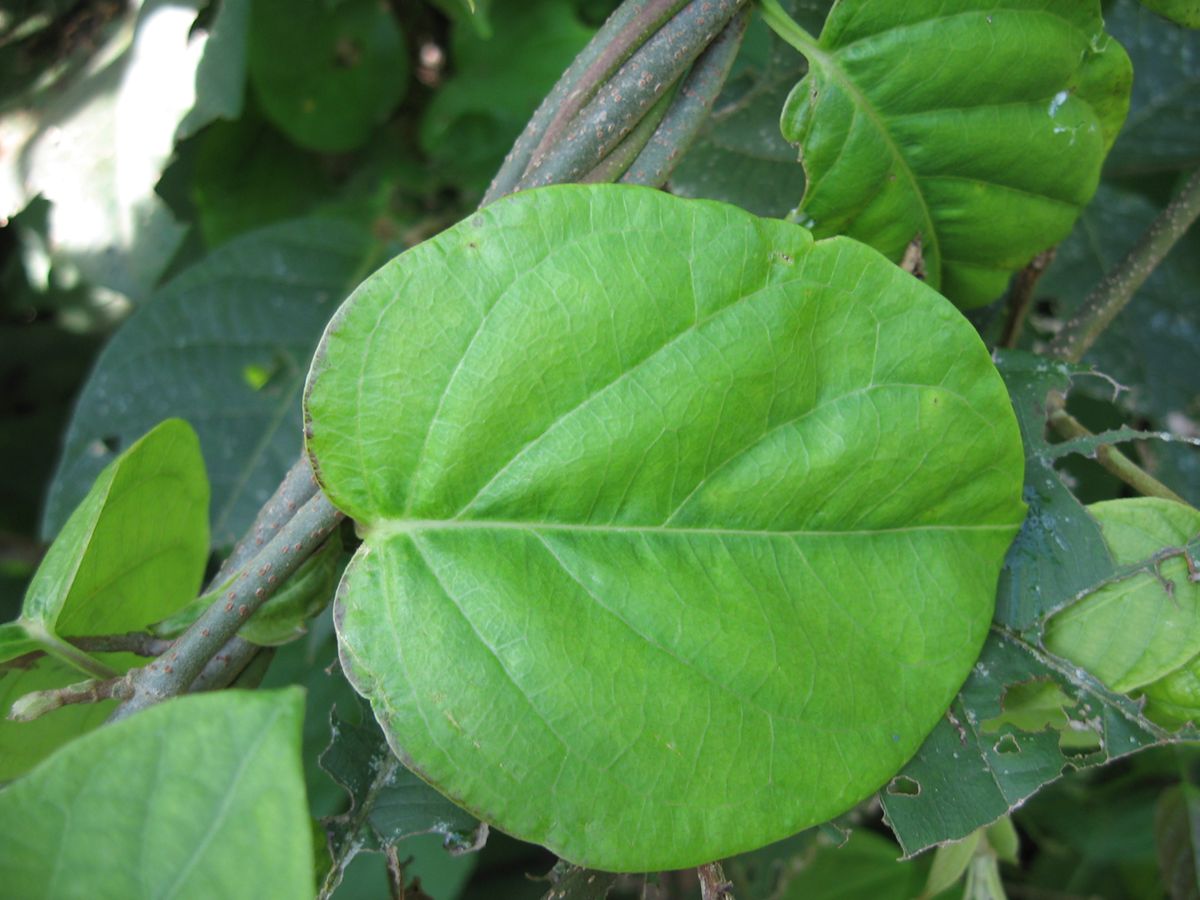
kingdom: Plantae
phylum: Tracheophyta
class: Magnoliopsida
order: Gentianales
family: Apocynaceae
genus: Echites
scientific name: Echites yucatanensis
